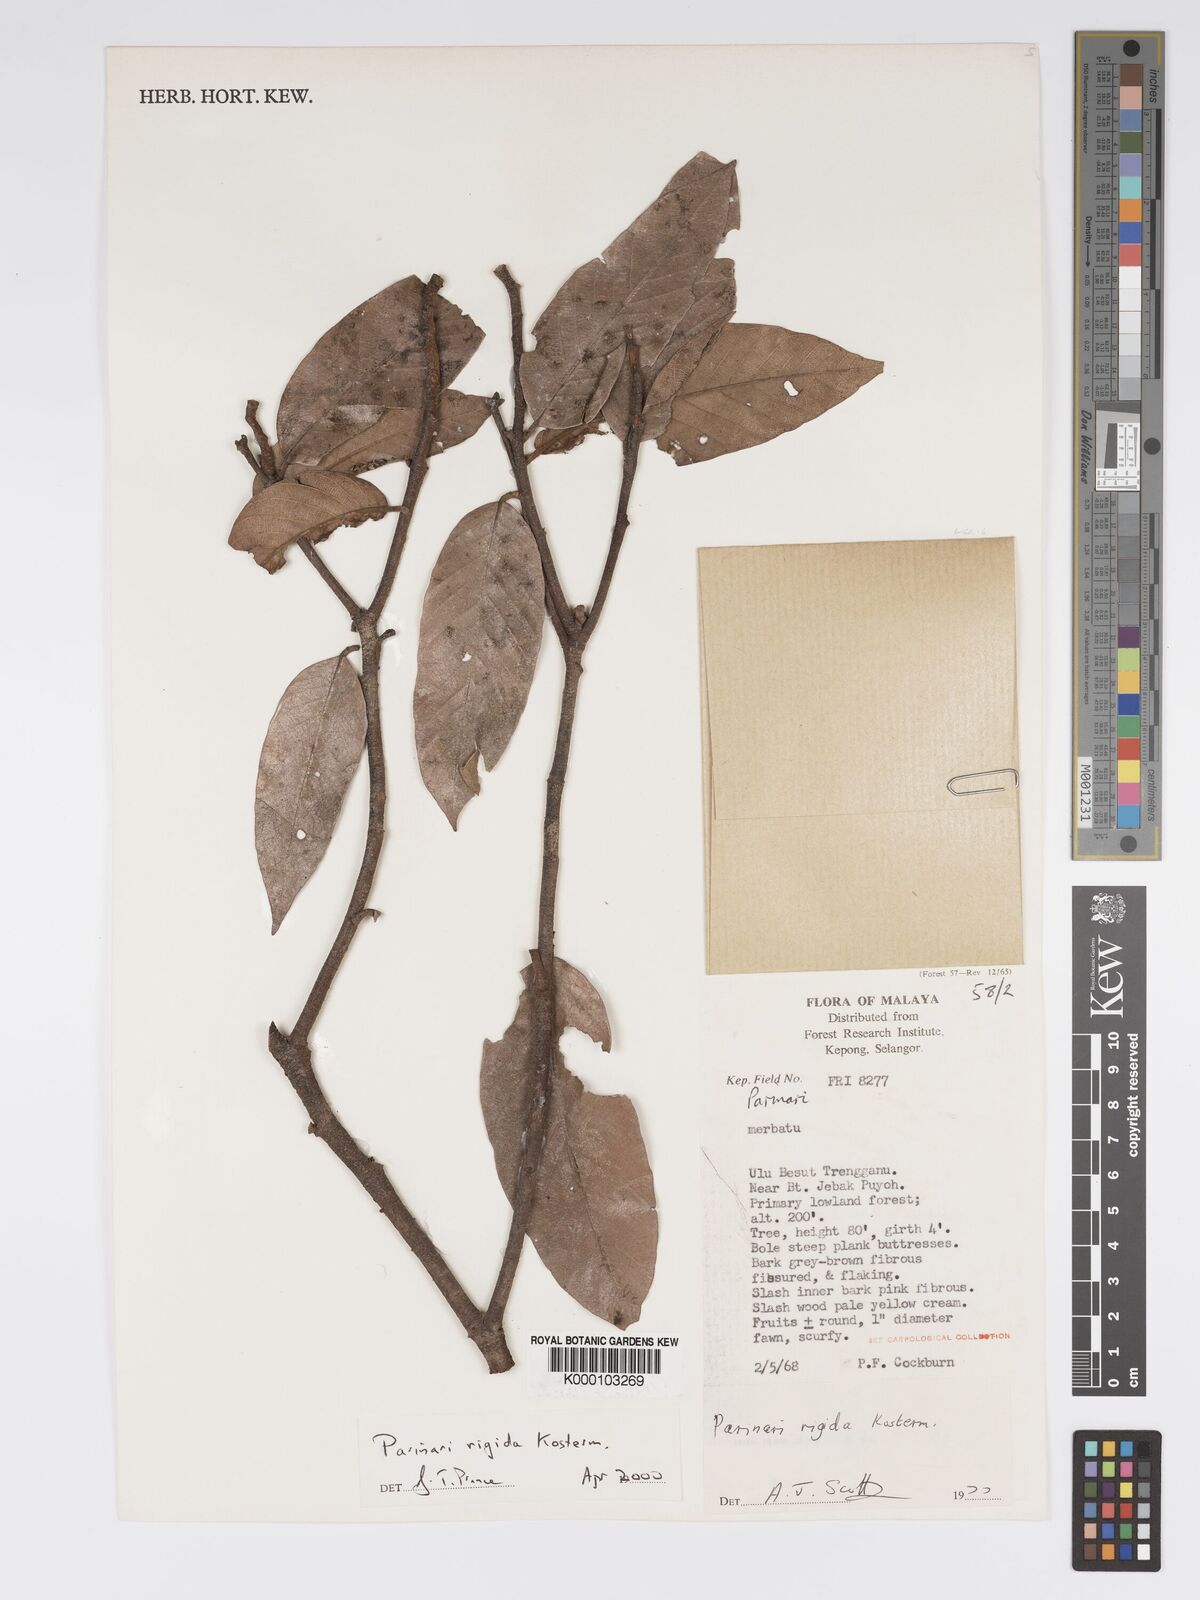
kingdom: Plantae
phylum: Tracheophyta
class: Magnoliopsida
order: Malpighiales
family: Chrysobalanaceae
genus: Parinari
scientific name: Parinari rigida
